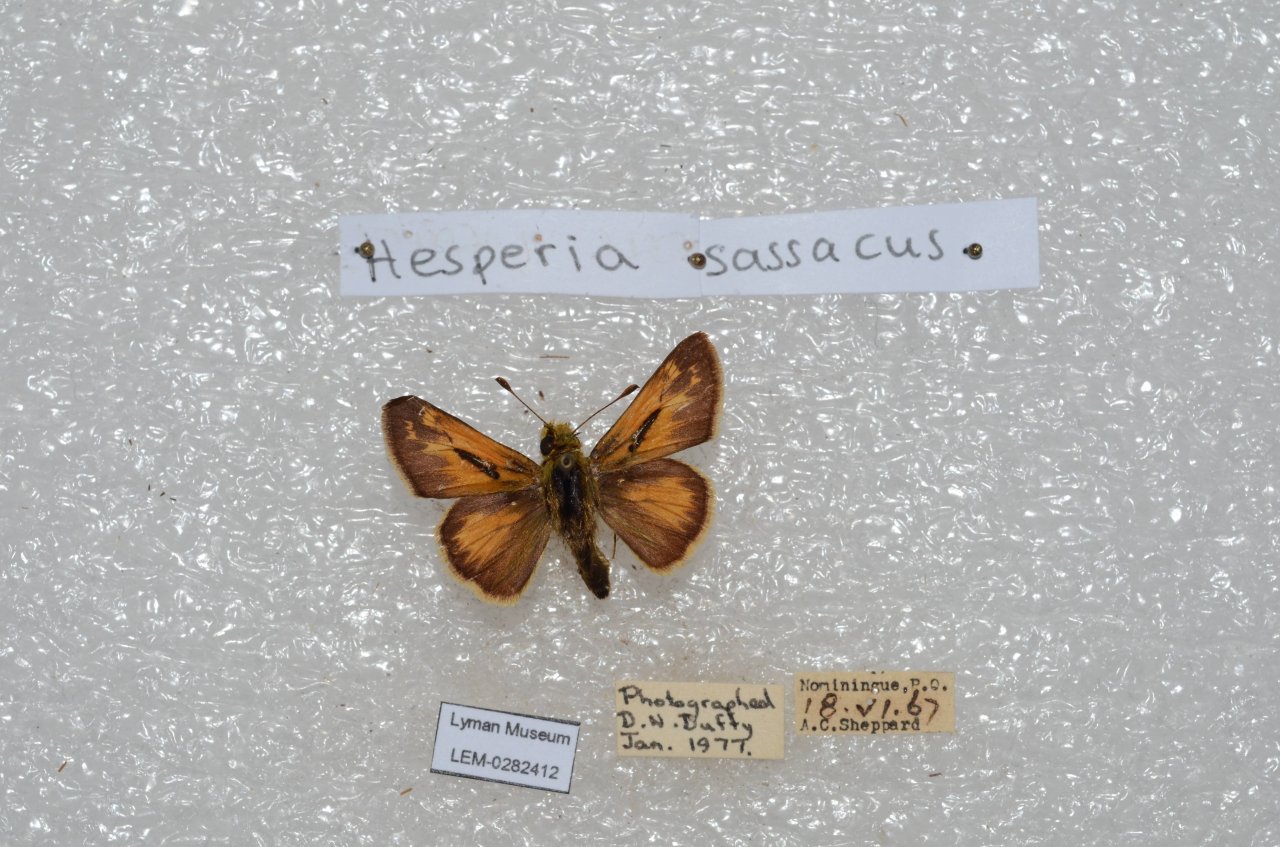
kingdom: Animalia
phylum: Arthropoda
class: Insecta
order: Lepidoptera
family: Hesperiidae
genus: Hesperia
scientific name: Hesperia sassacus
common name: Sassacus Skipper
